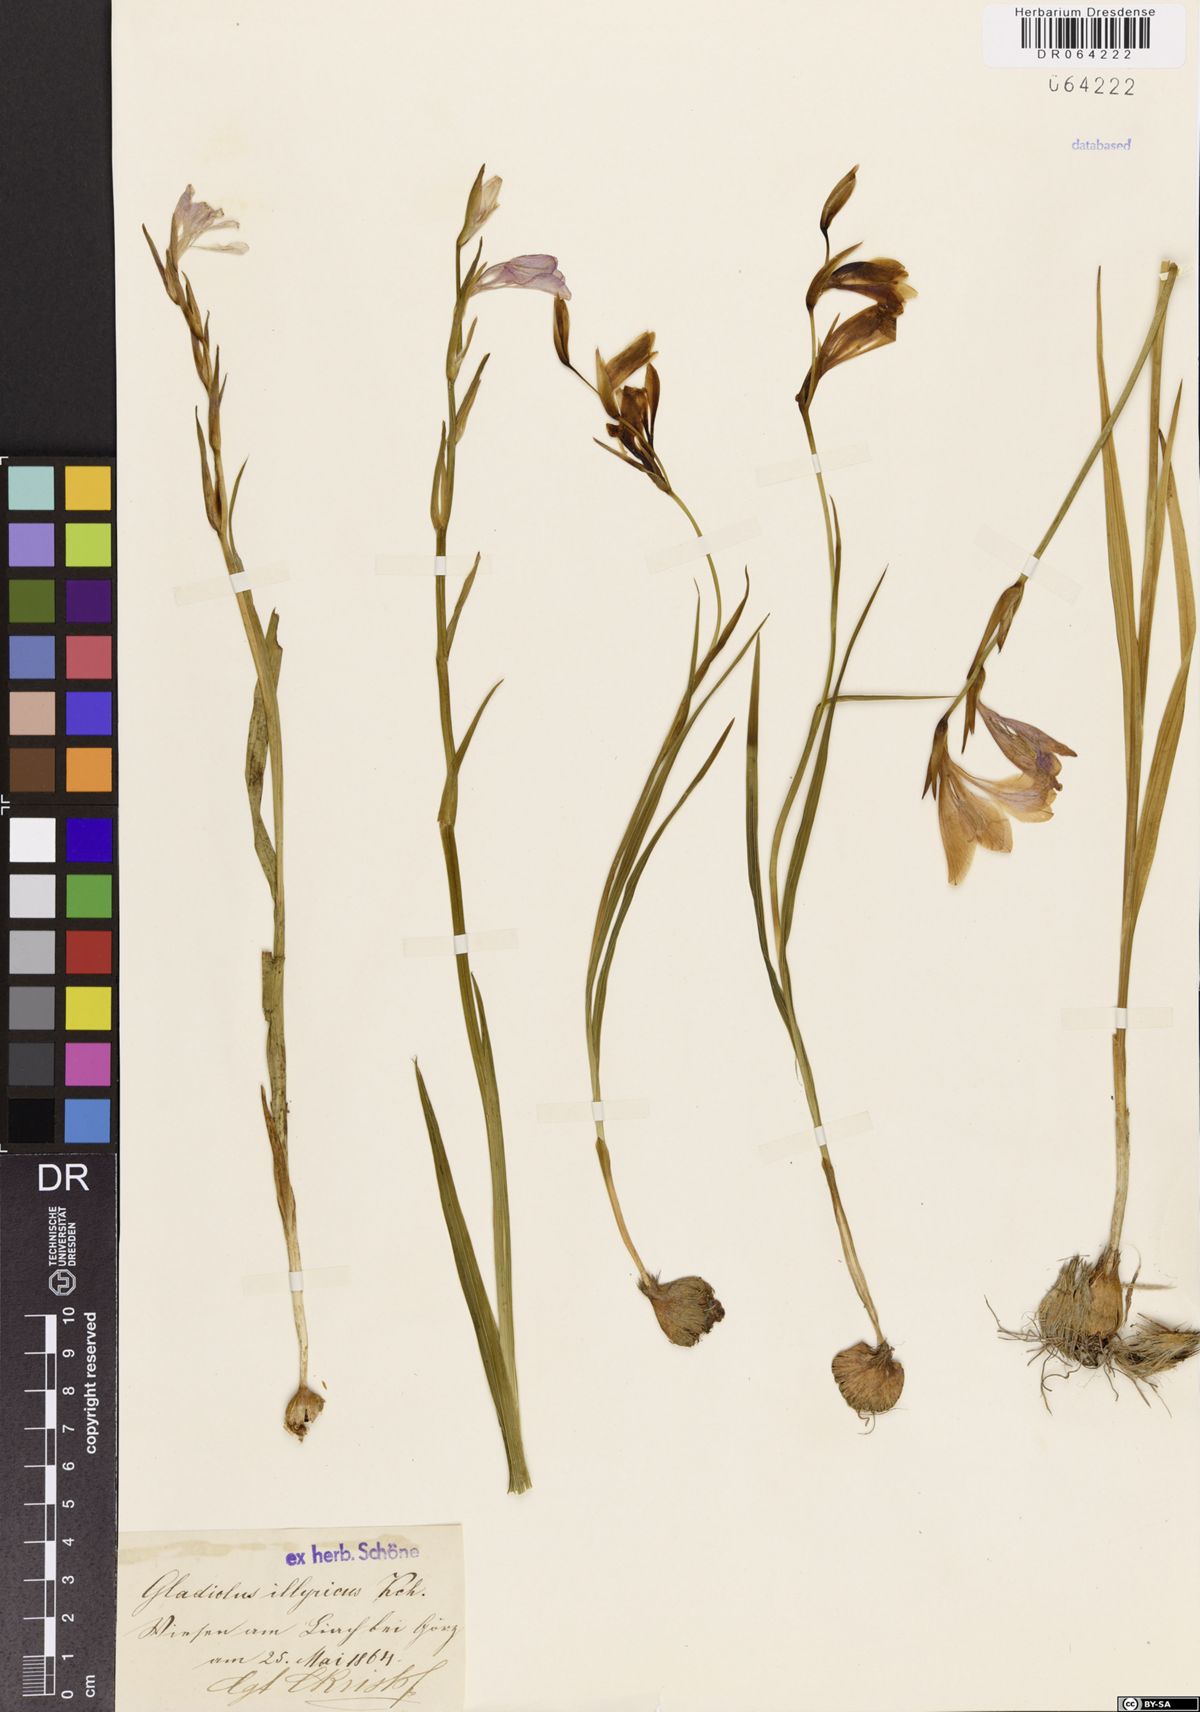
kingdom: Plantae
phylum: Tracheophyta
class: Liliopsida
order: Asparagales
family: Iridaceae
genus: Gladiolus
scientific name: Gladiolus illyricus
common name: Wild gladiolus
